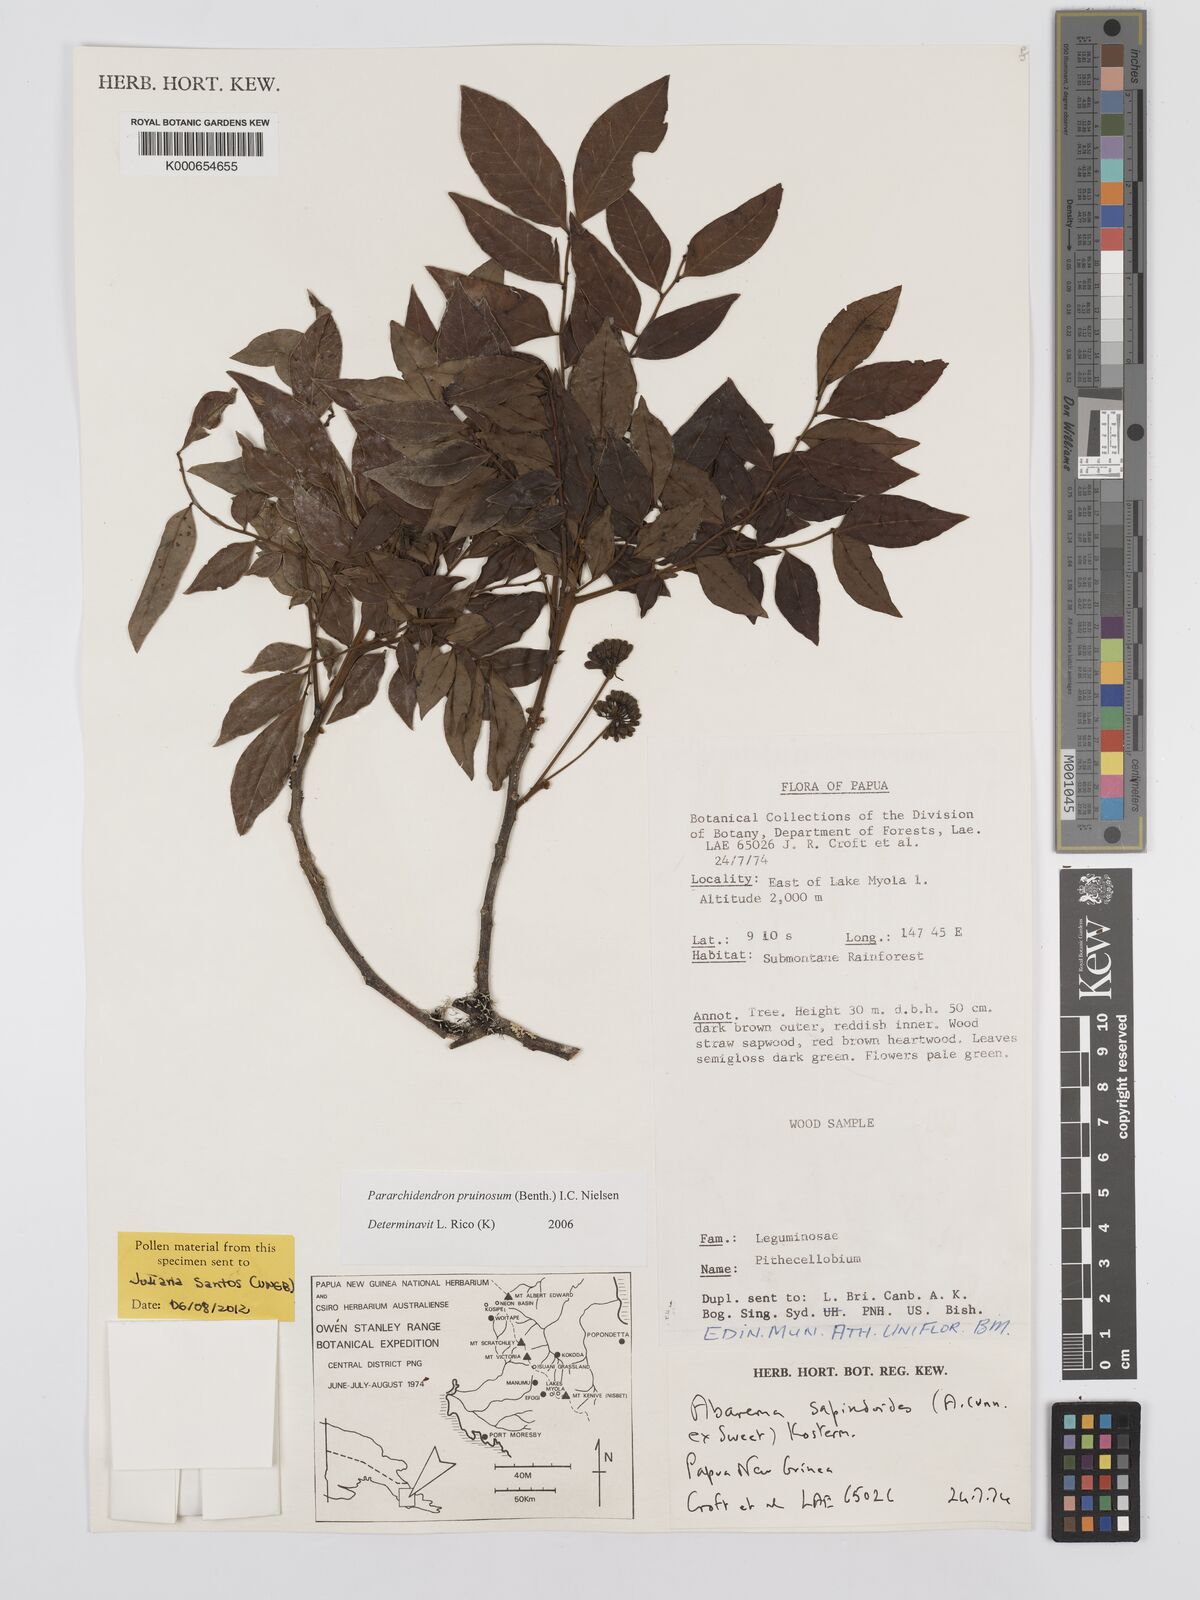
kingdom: Plantae
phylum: Tracheophyta
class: Magnoliopsida
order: Fabales
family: Fabaceae
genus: Pararchidendron
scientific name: Pararchidendron pruinosum
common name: Tulip siris
